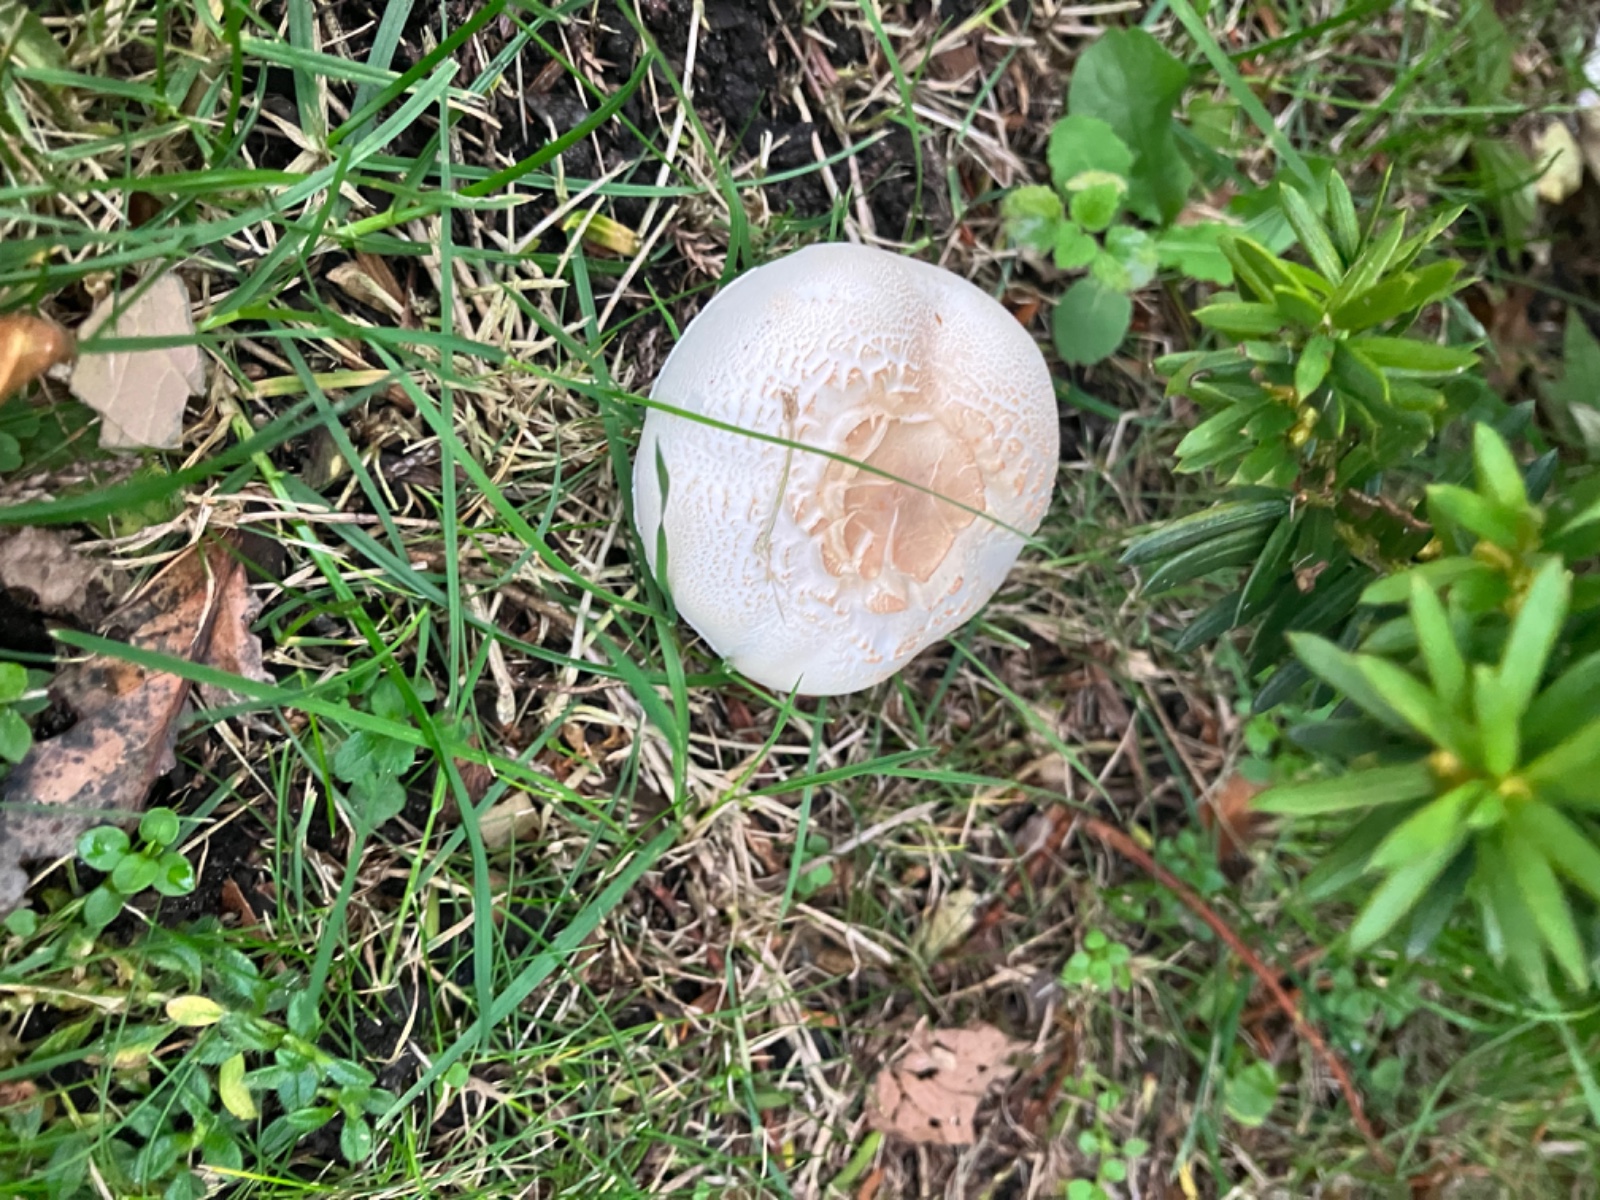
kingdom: Fungi
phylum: Basidiomycota
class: Agaricomycetes
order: Agaricales
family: Agaricaceae
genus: Leucoagaricus
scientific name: Leucoagaricus leucothites
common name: rosabladet silkehat
